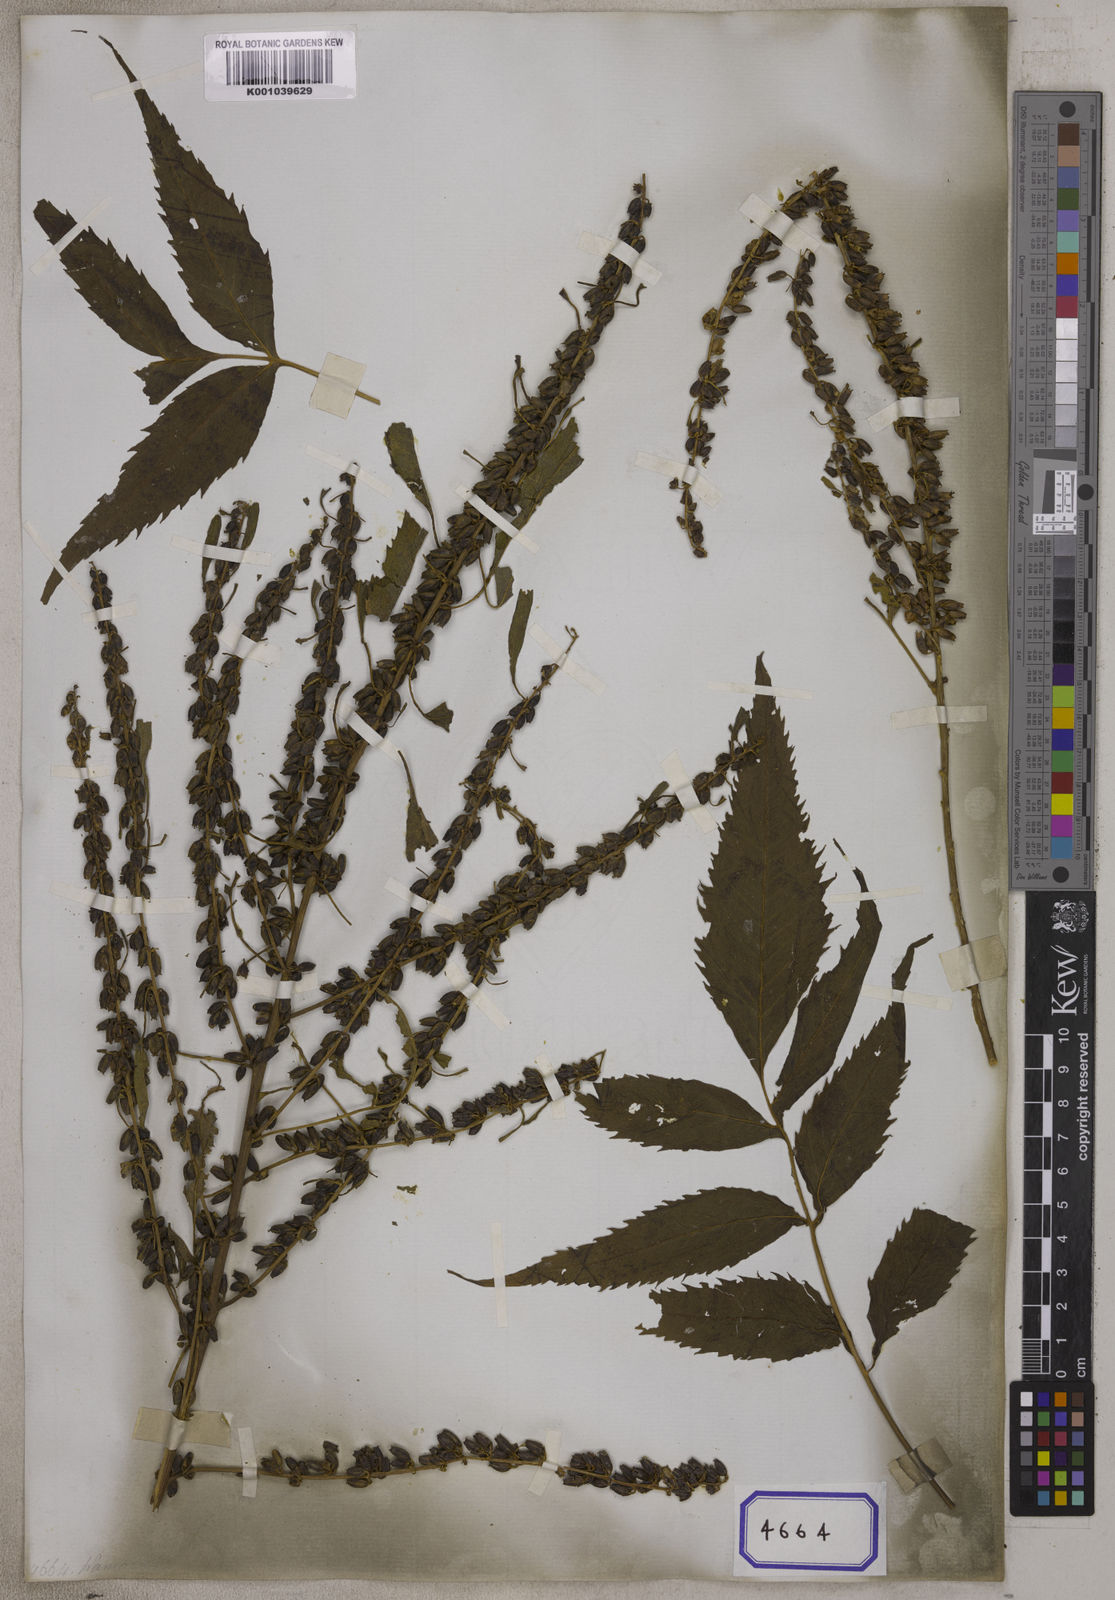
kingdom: Plantae
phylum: Tracheophyta
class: Magnoliopsida
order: Cucurbitales
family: Datiscaceae
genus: Datisca
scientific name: Datisca cannabina
